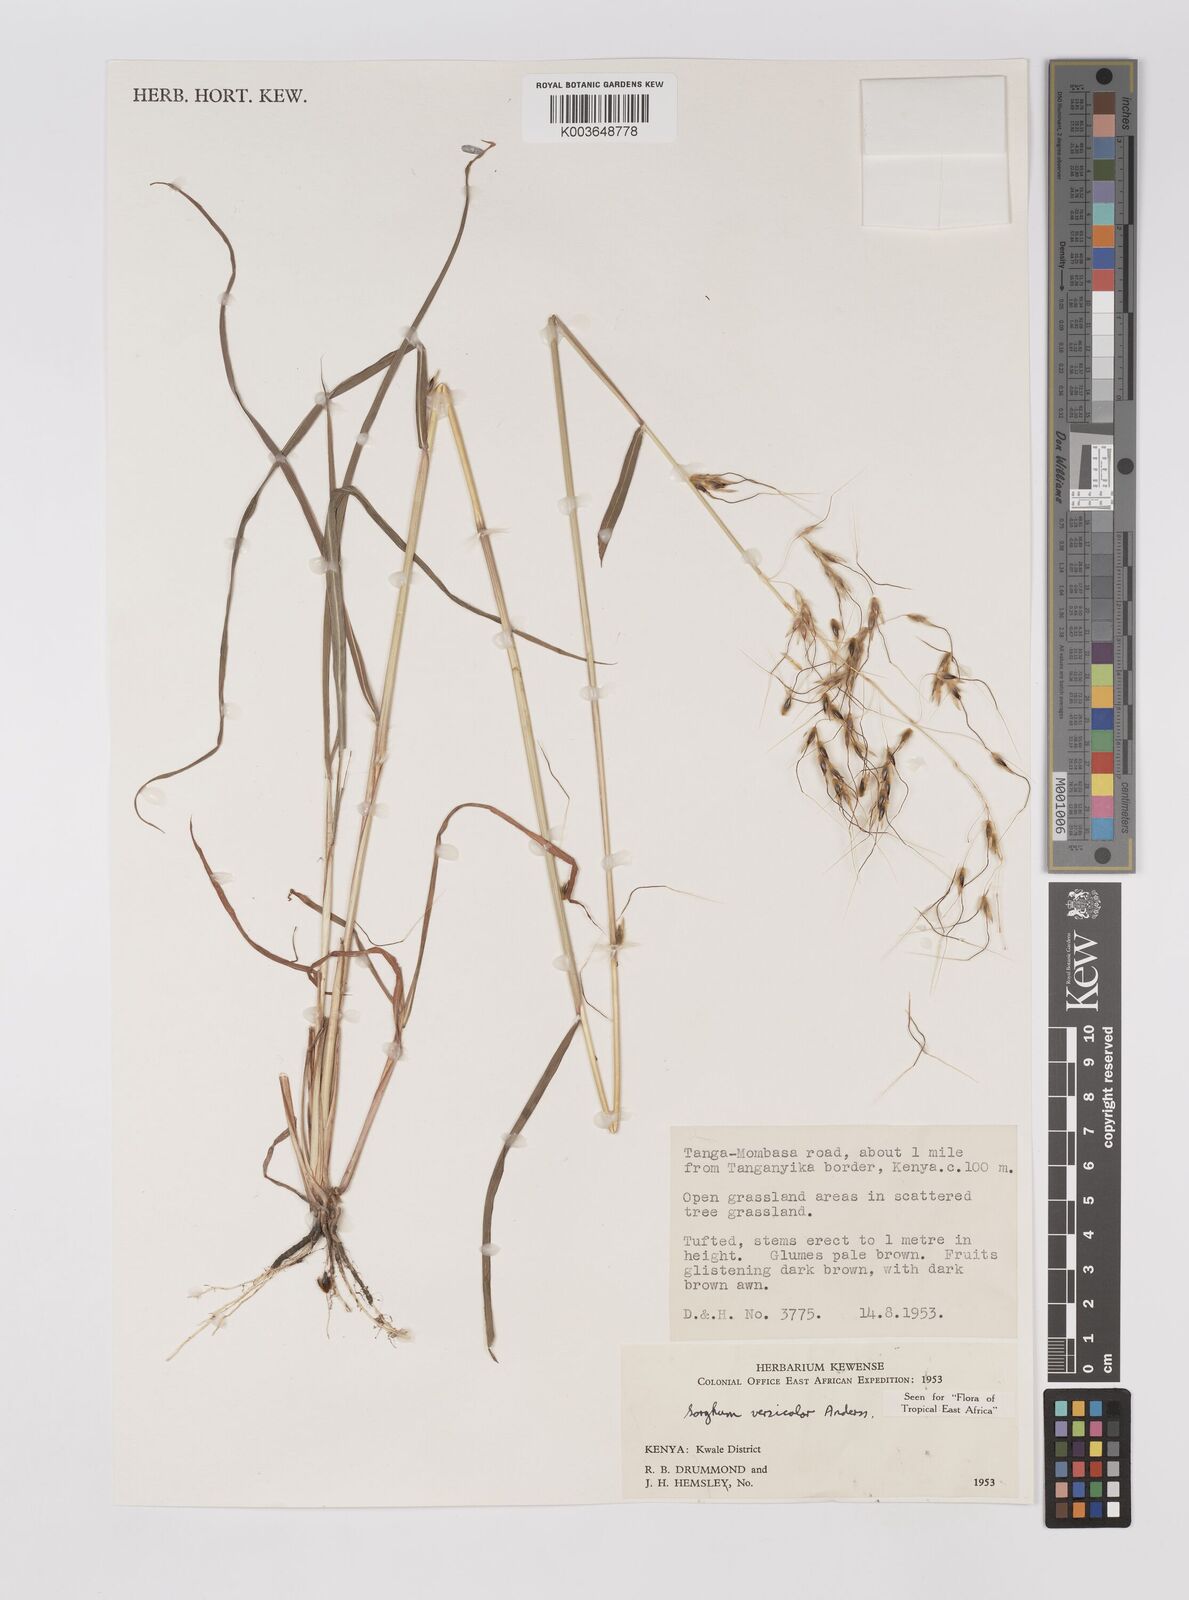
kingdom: Plantae
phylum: Tracheophyta
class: Liliopsida
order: Poales
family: Poaceae
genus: Sarga
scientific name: Sarga versicolor
